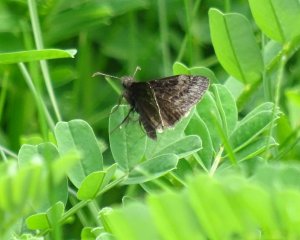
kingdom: Animalia
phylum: Arthropoda
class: Insecta
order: Lepidoptera
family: Hesperiidae
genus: Erynnis
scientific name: Erynnis icelus
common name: Dreamy Duskywing
